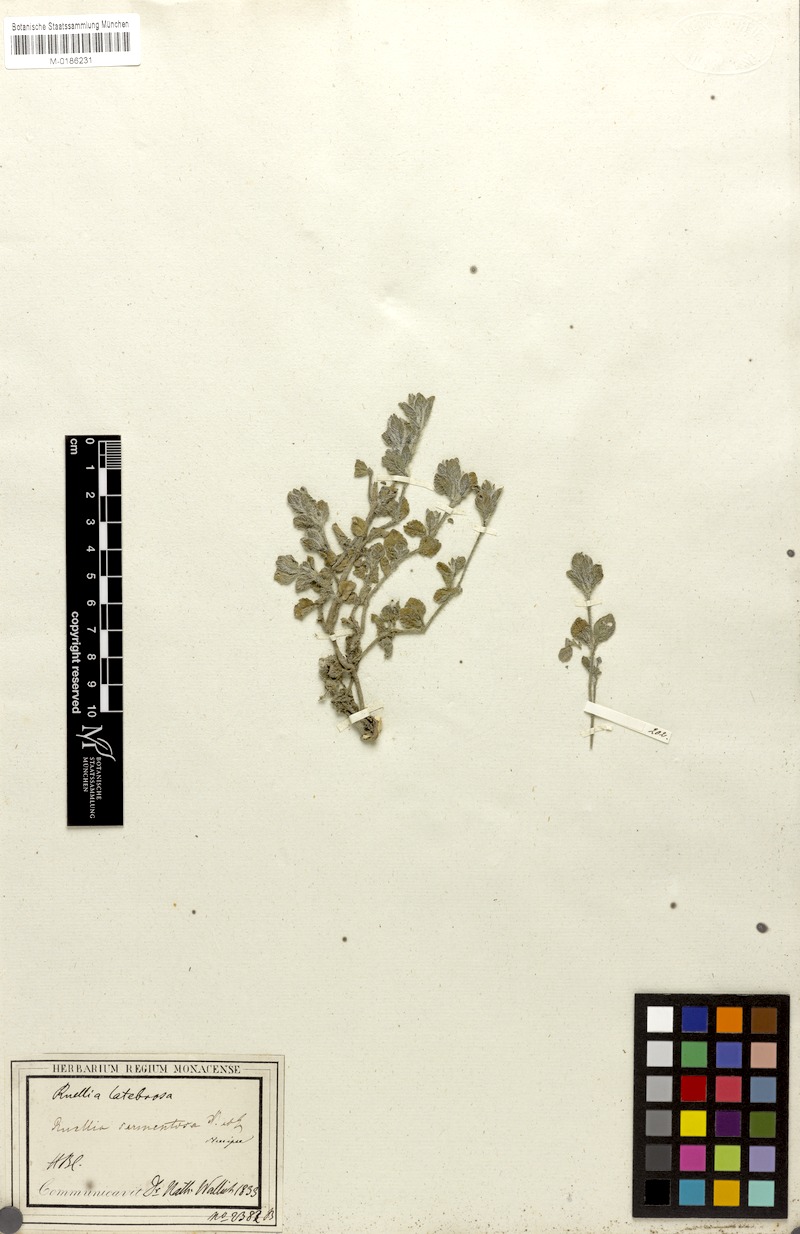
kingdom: Plantae
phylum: Tracheophyta
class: Magnoliopsida
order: Lamiales
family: Acanthaceae
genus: Strobilanthes
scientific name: Strobilanthes hirta
